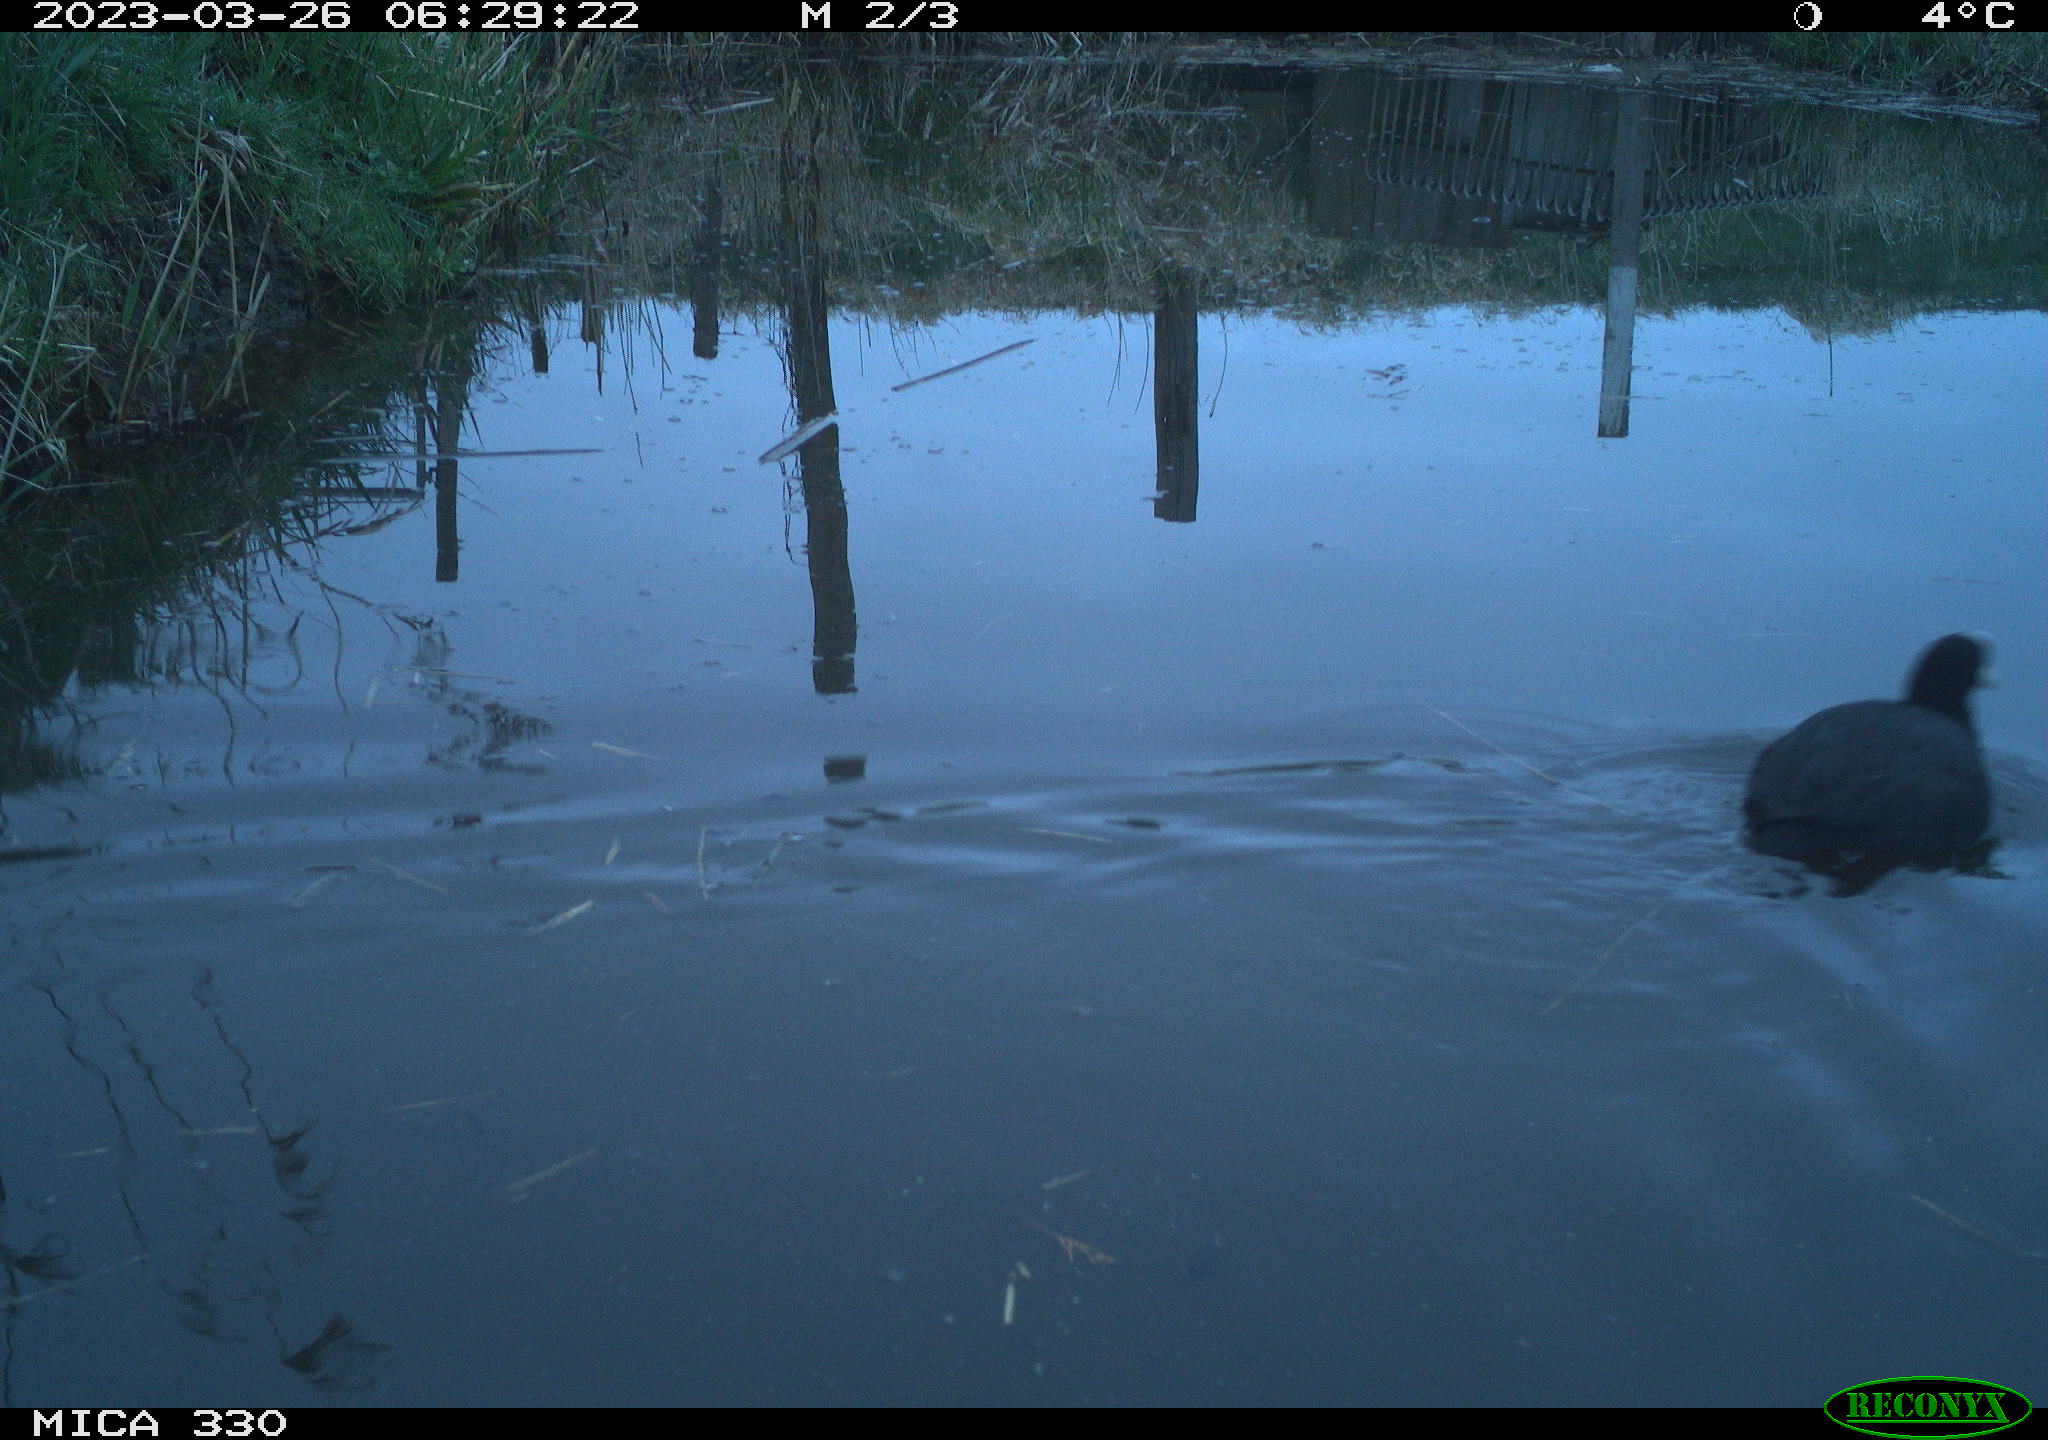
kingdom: Animalia
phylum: Chordata
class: Aves
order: Gruiformes
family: Rallidae
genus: Fulica
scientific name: Fulica atra
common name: Eurasian coot
